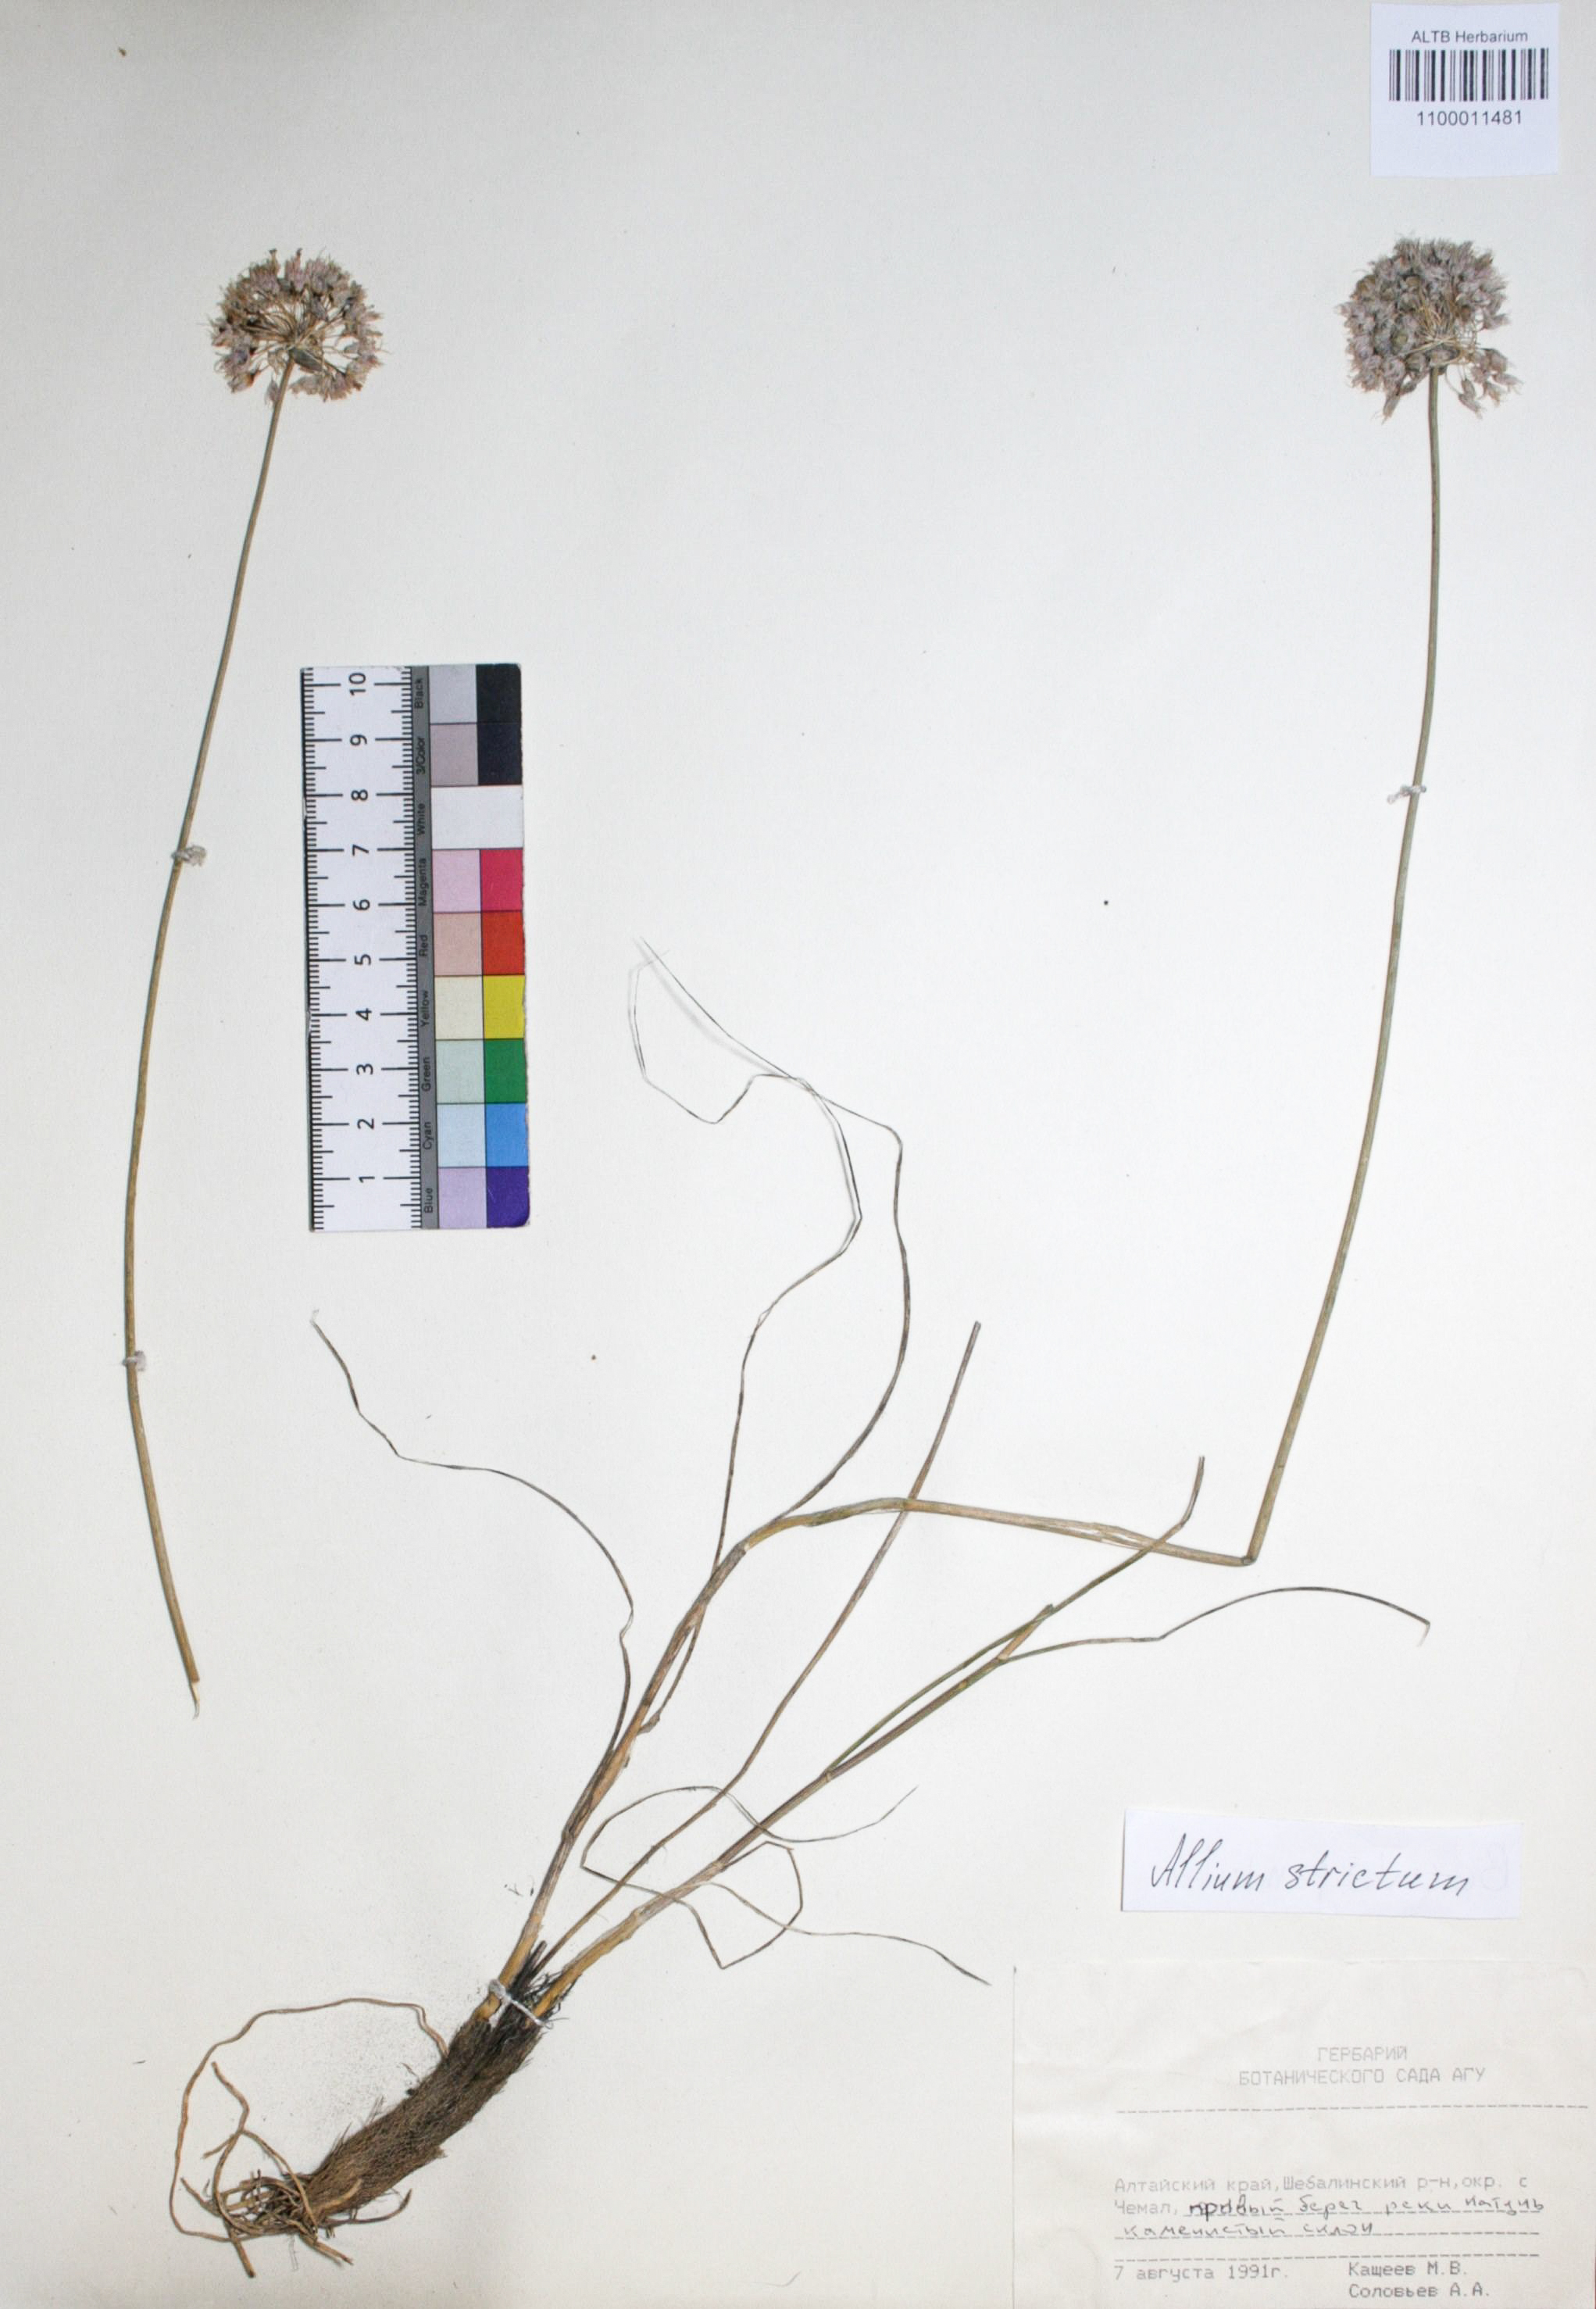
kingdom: Plantae
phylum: Tracheophyta
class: Liliopsida
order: Asparagales
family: Amaryllidaceae
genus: Allium
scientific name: Allium strictum
